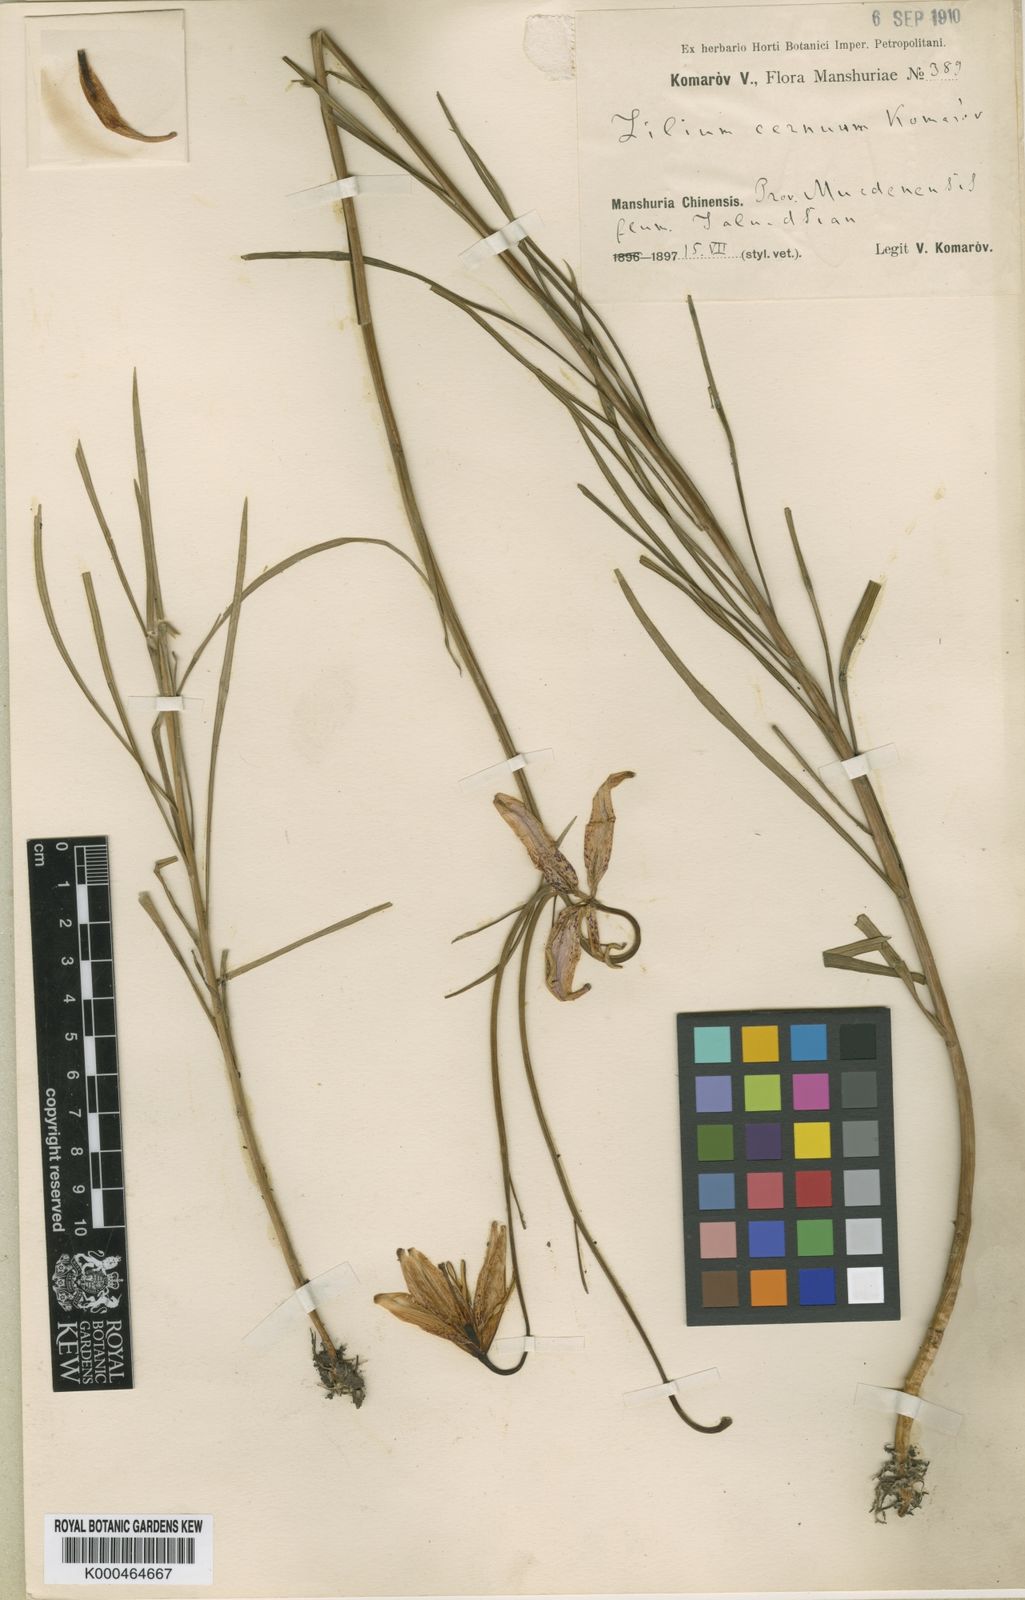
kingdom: Plantae
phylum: Tracheophyta
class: Liliopsida
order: Liliales
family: Liliaceae
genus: Lilium
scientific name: Lilium cernuum
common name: Nodding lily
